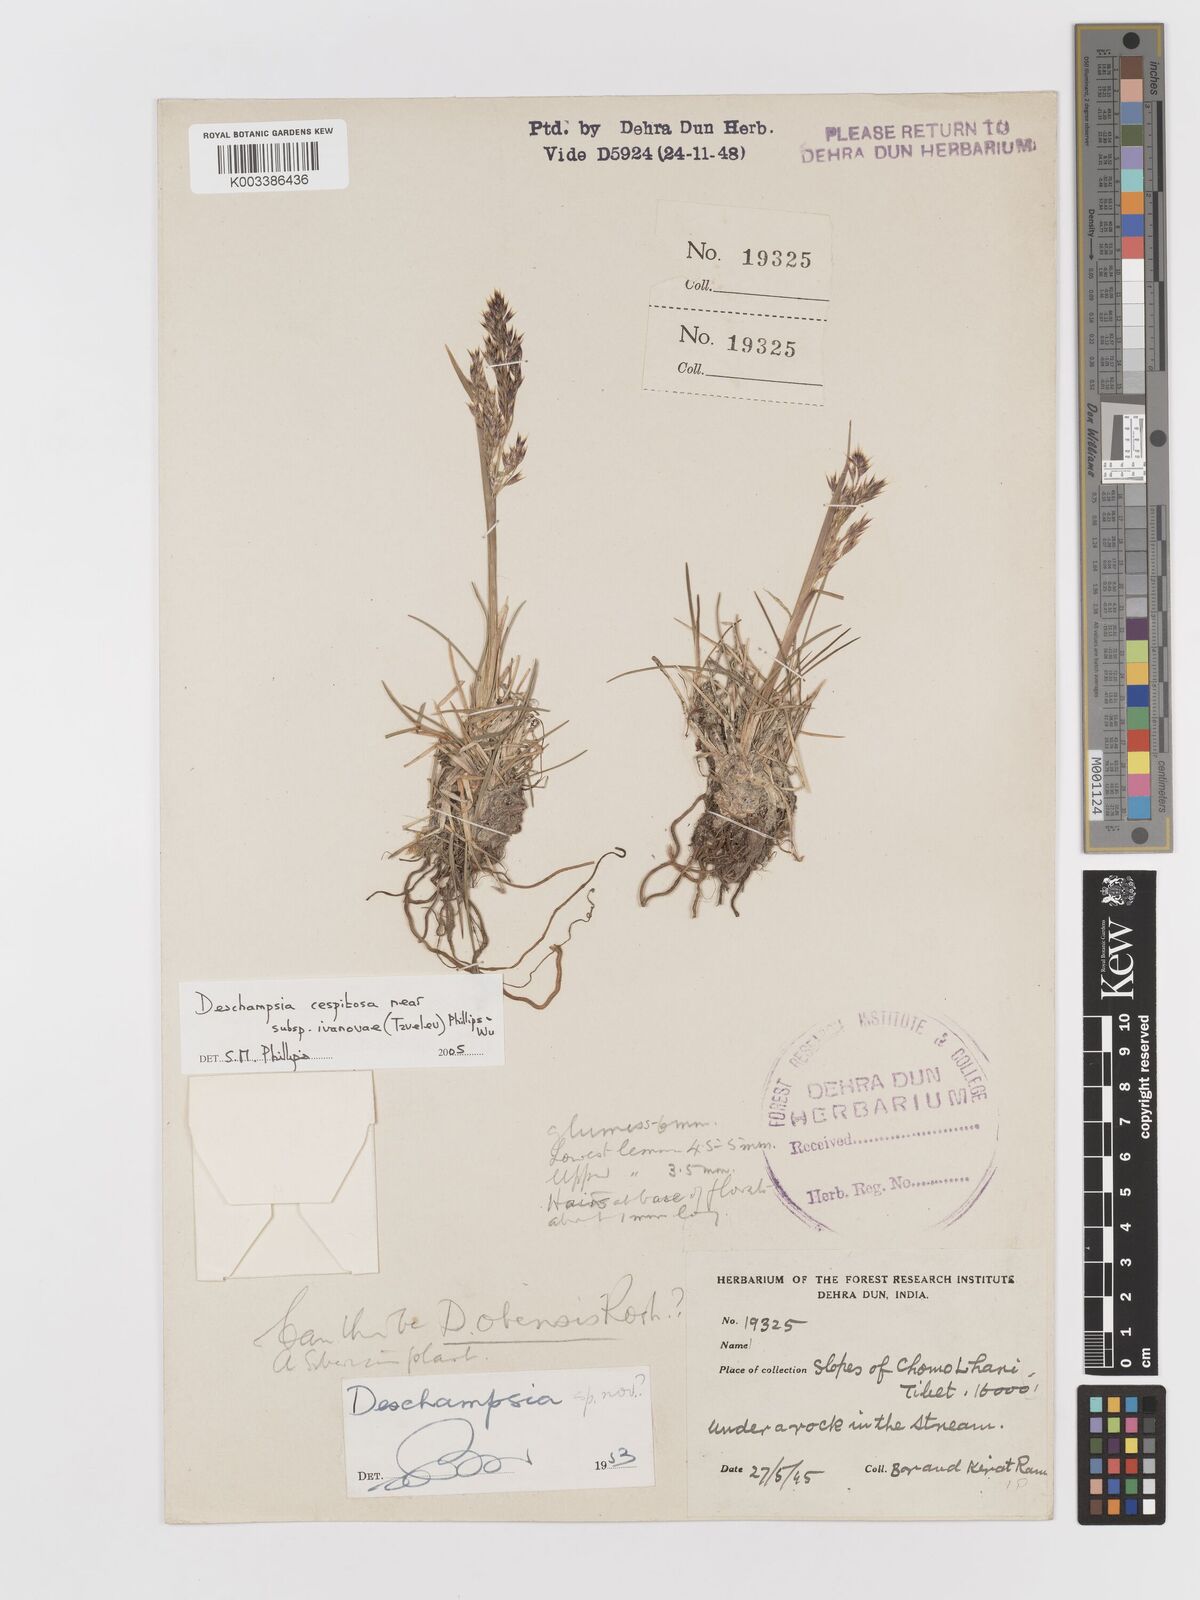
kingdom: Plantae
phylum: Tracheophyta
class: Liliopsida
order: Poales
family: Poaceae
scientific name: Poaceae
